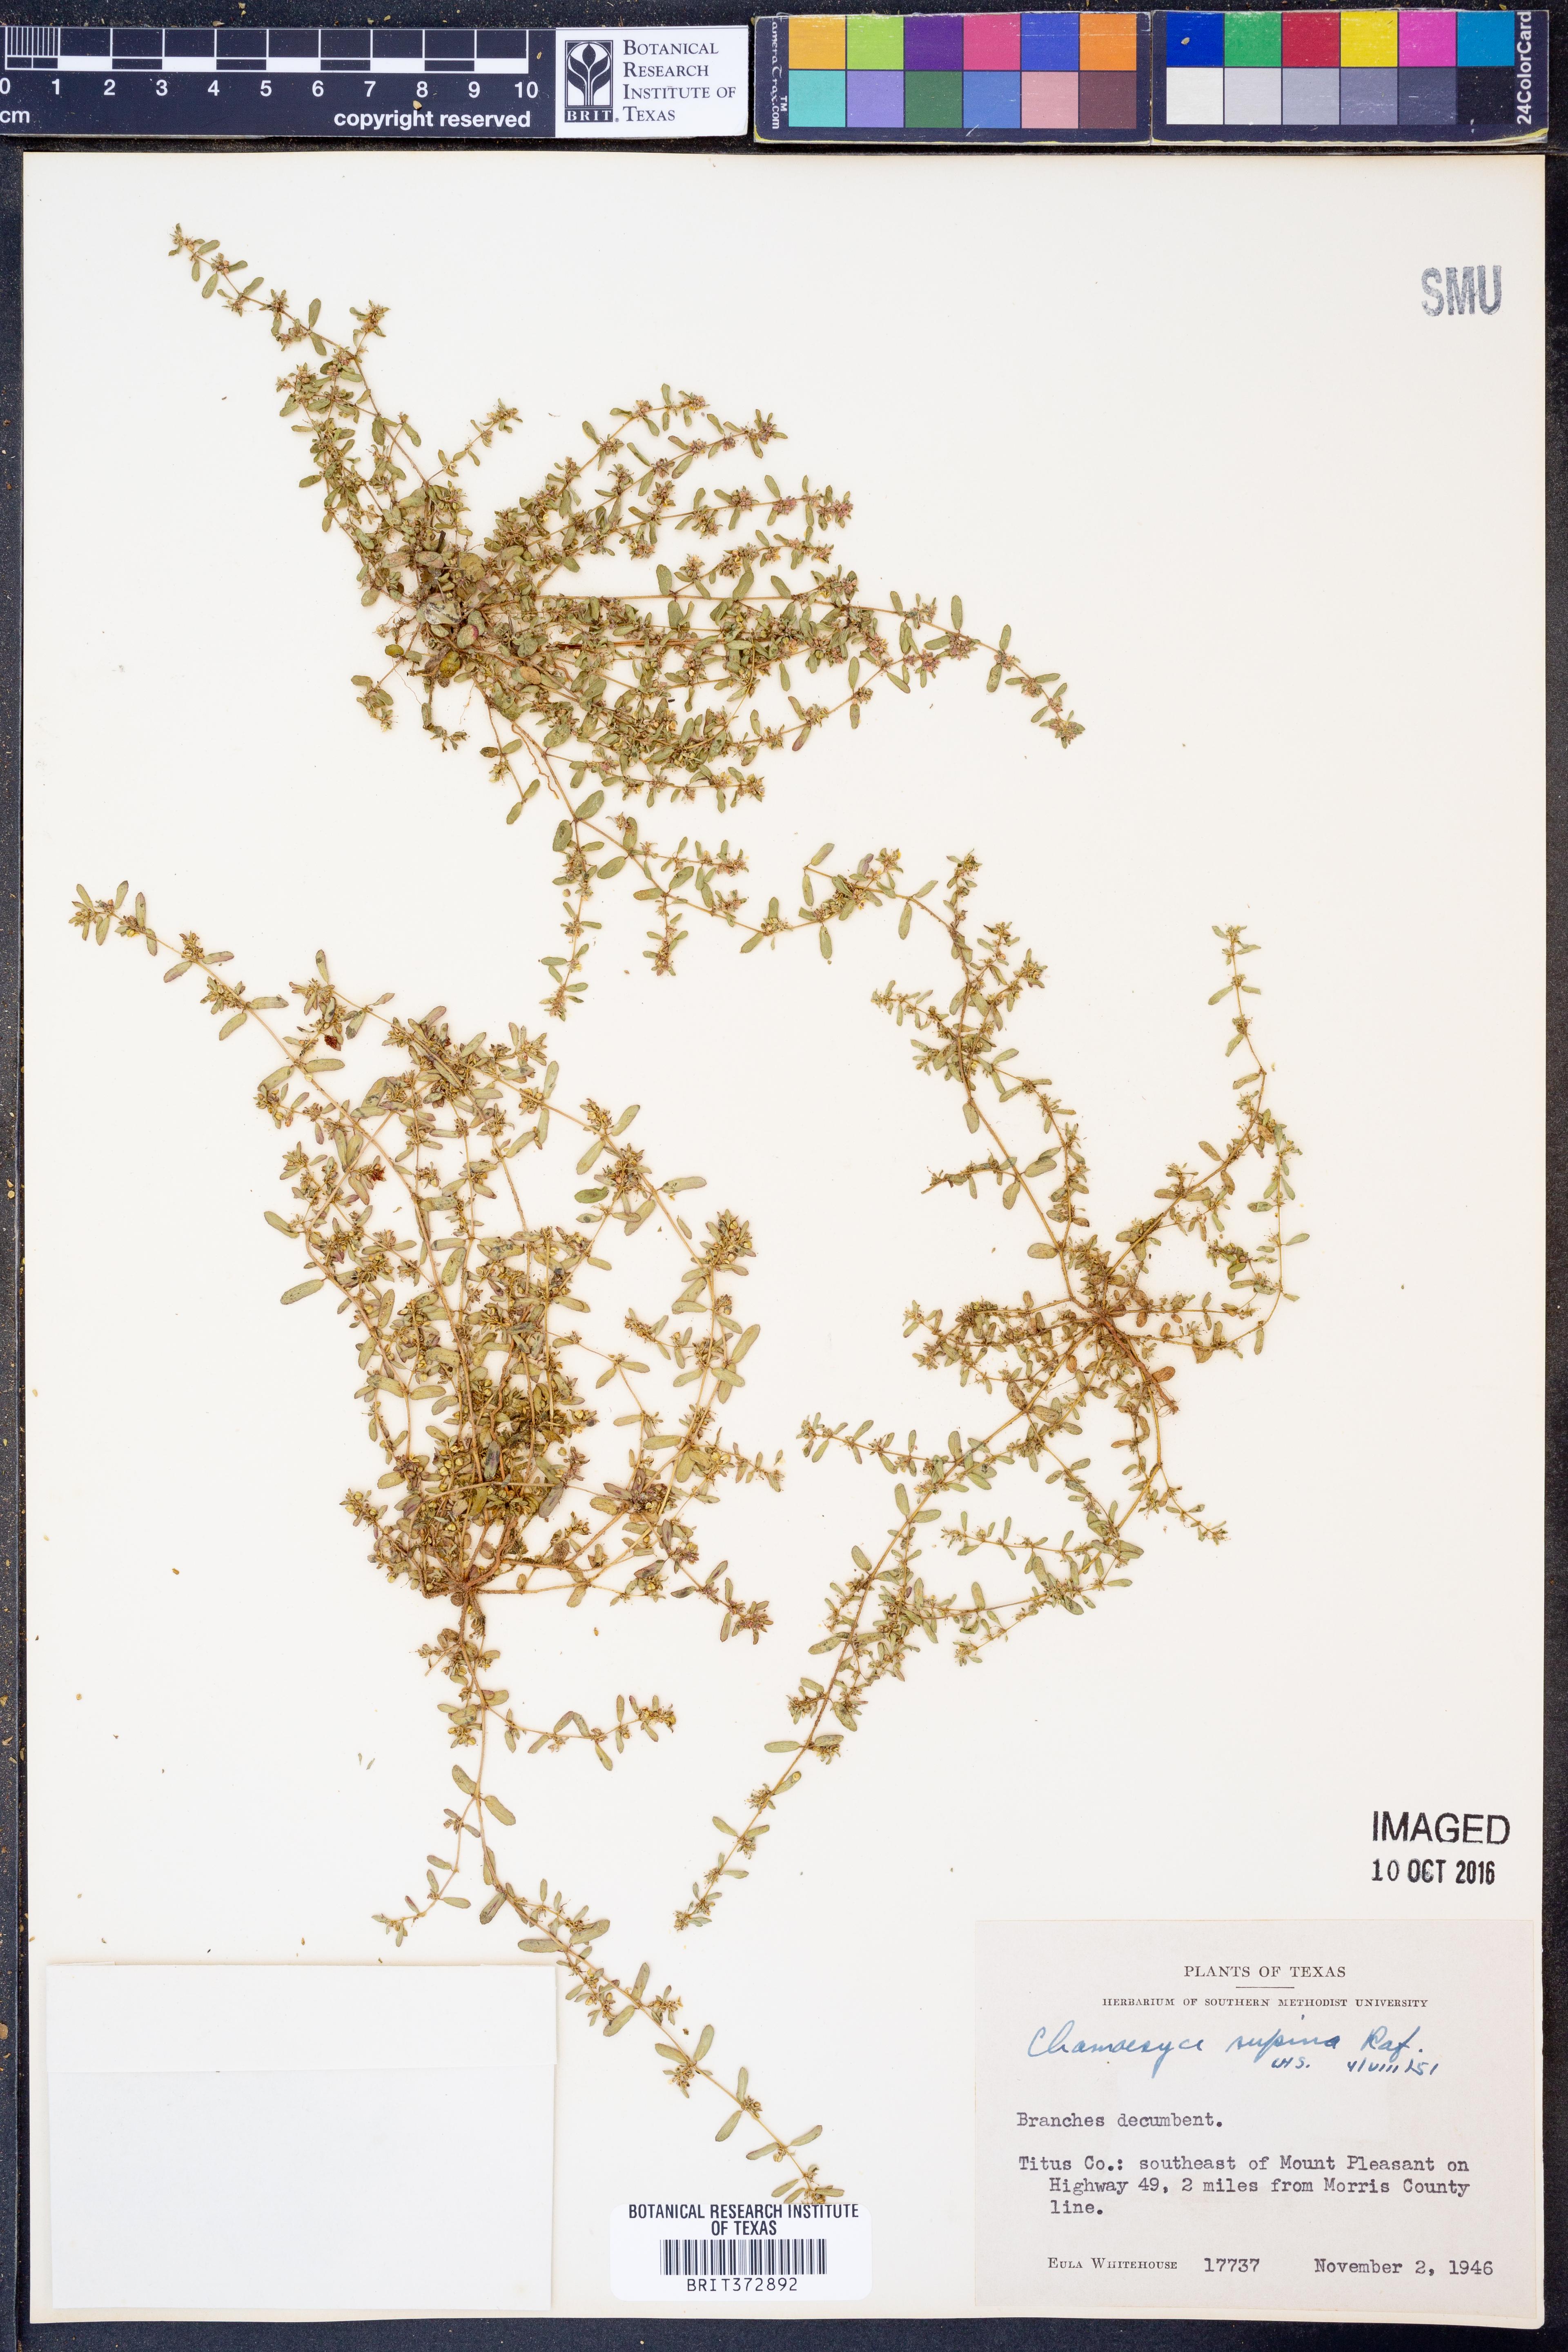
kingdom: Plantae
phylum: Tracheophyta
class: Magnoliopsida
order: Malpighiales
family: Euphorbiaceae
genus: Euphorbia
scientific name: Euphorbia maculata
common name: Spotted spurge
